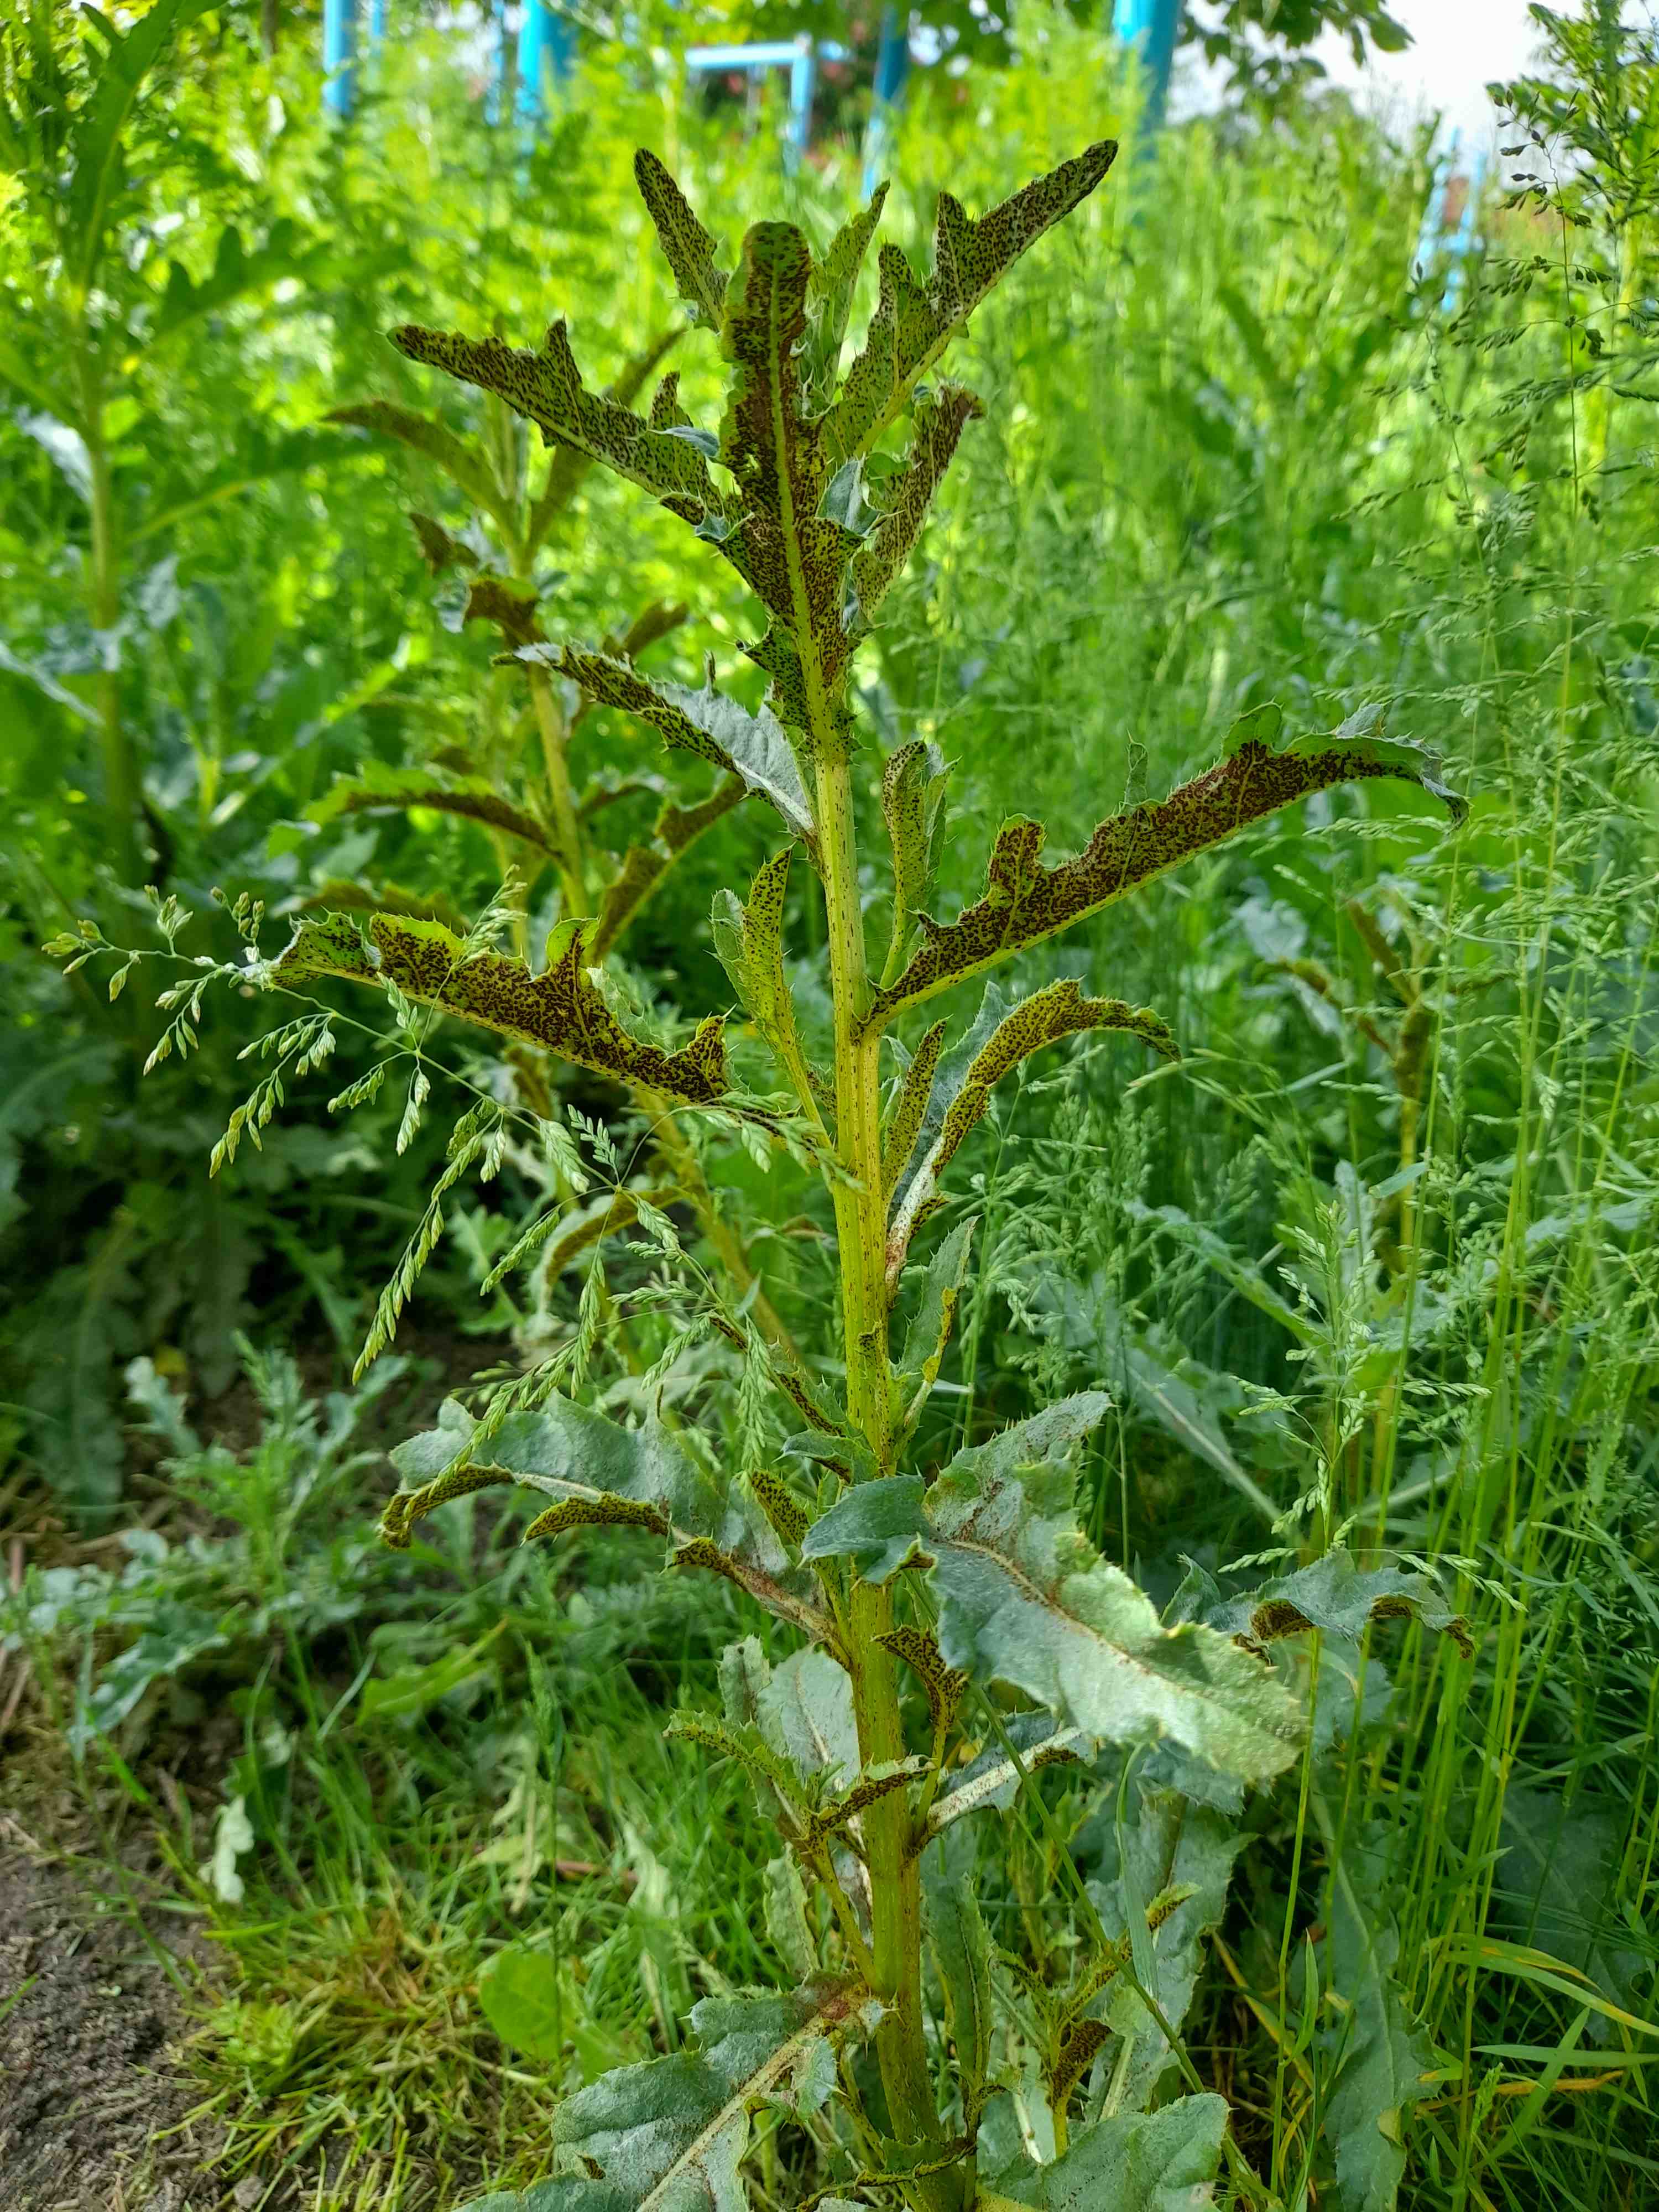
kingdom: Fungi
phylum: Basidiomycota
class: Pucciniomycetes
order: Pucciniales
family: Pucciniaceae
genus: Puccinia
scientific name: Puccinia suaveolens
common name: tidsel-tvecellerust
